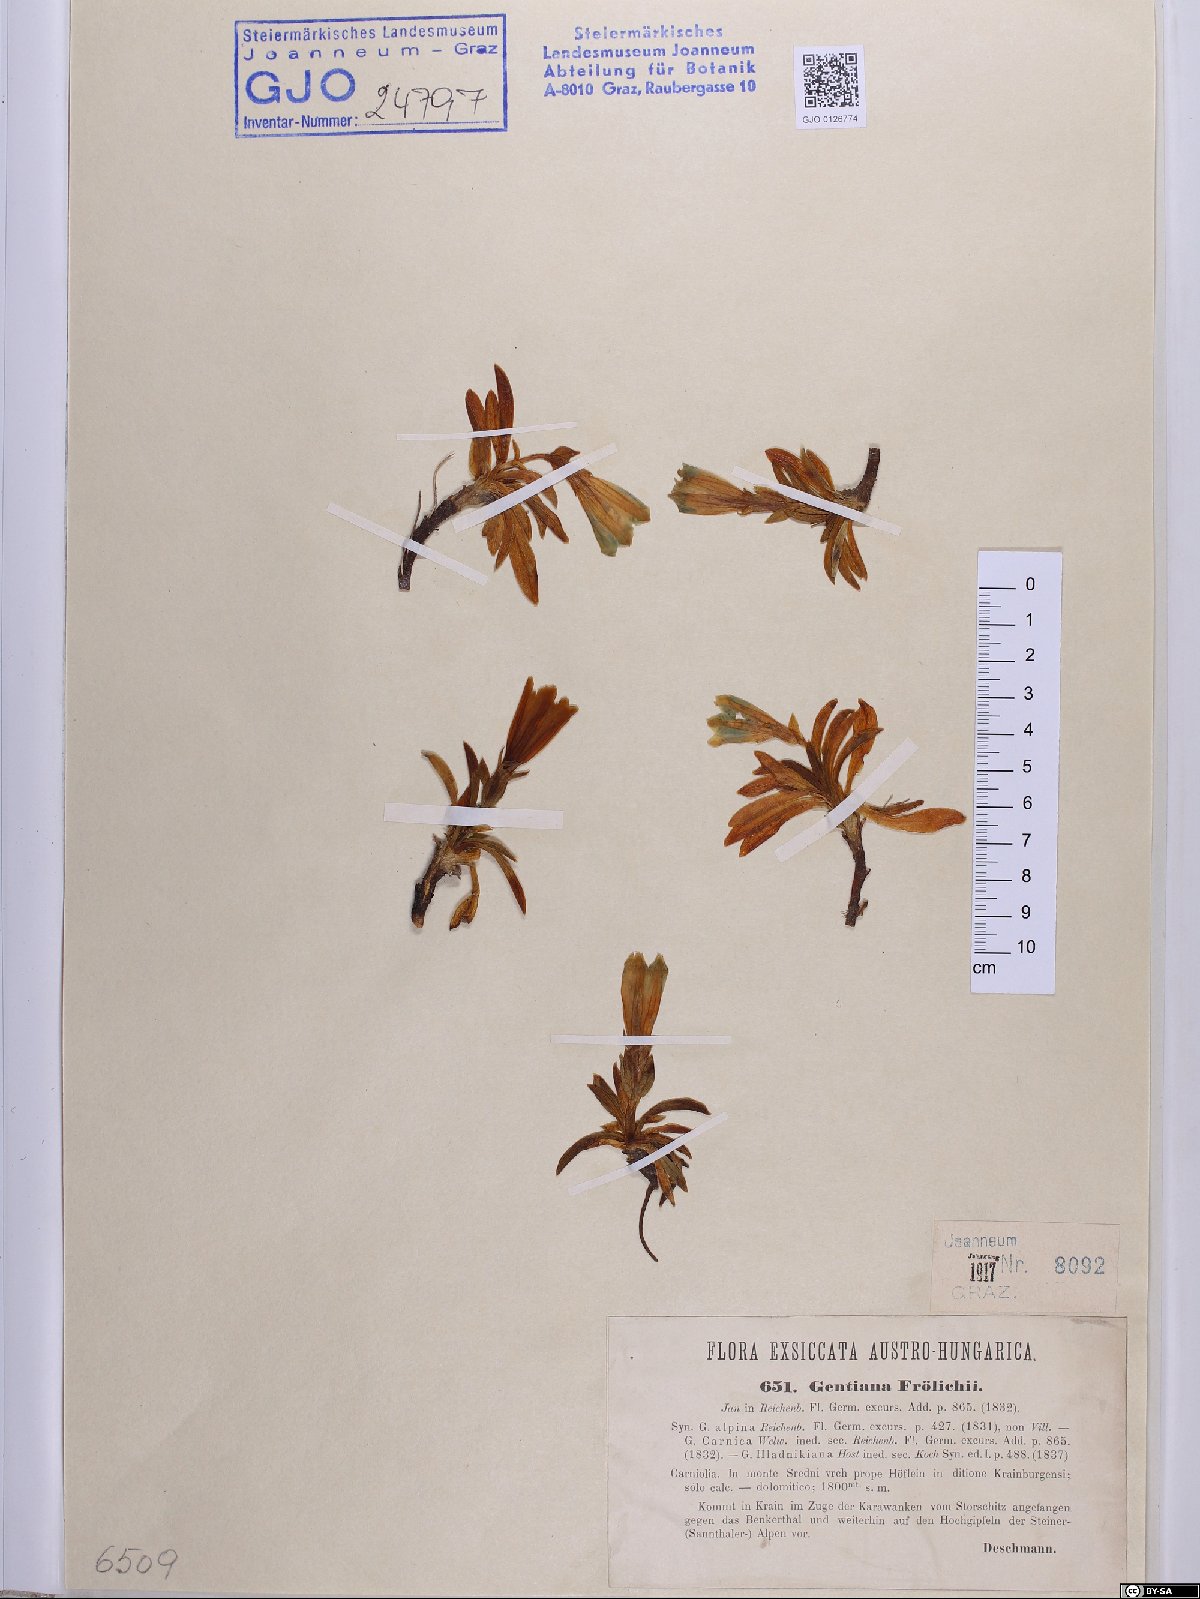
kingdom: Plantae
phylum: Tracheophyta
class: Magnoliopsida
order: Gentianales
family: Gentianaceae
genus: Gentiana
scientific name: Gentiana froelichii
